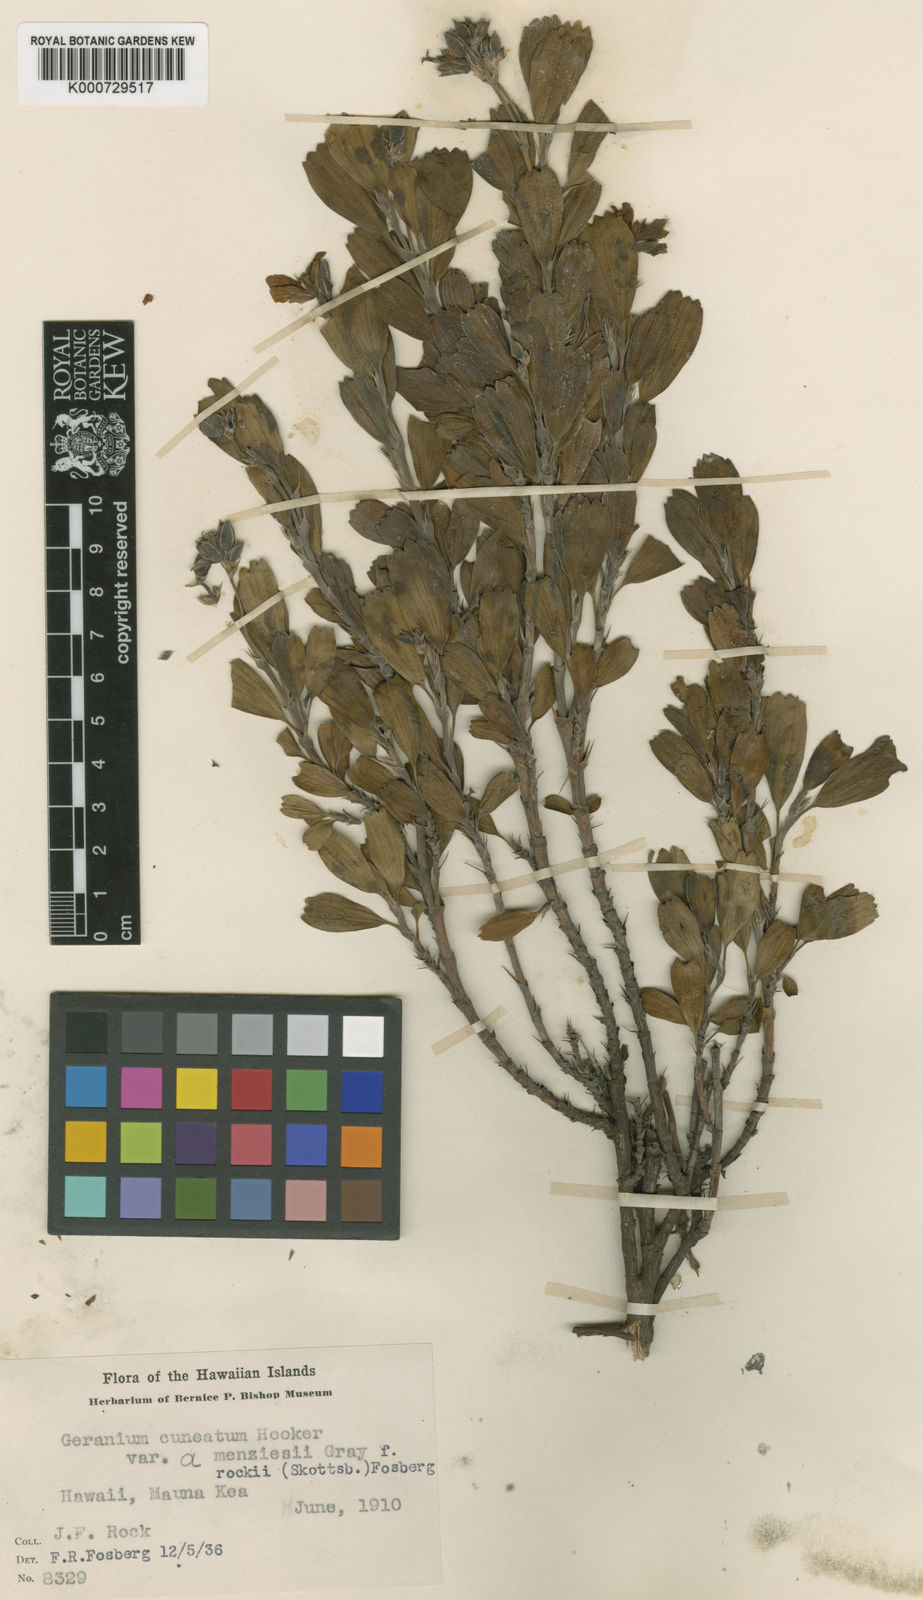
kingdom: Plantae
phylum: Tracheophyta
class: Magnoliopsida
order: Geraniales
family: Geraniaceae
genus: Geranium
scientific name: Geranium cuneatum
